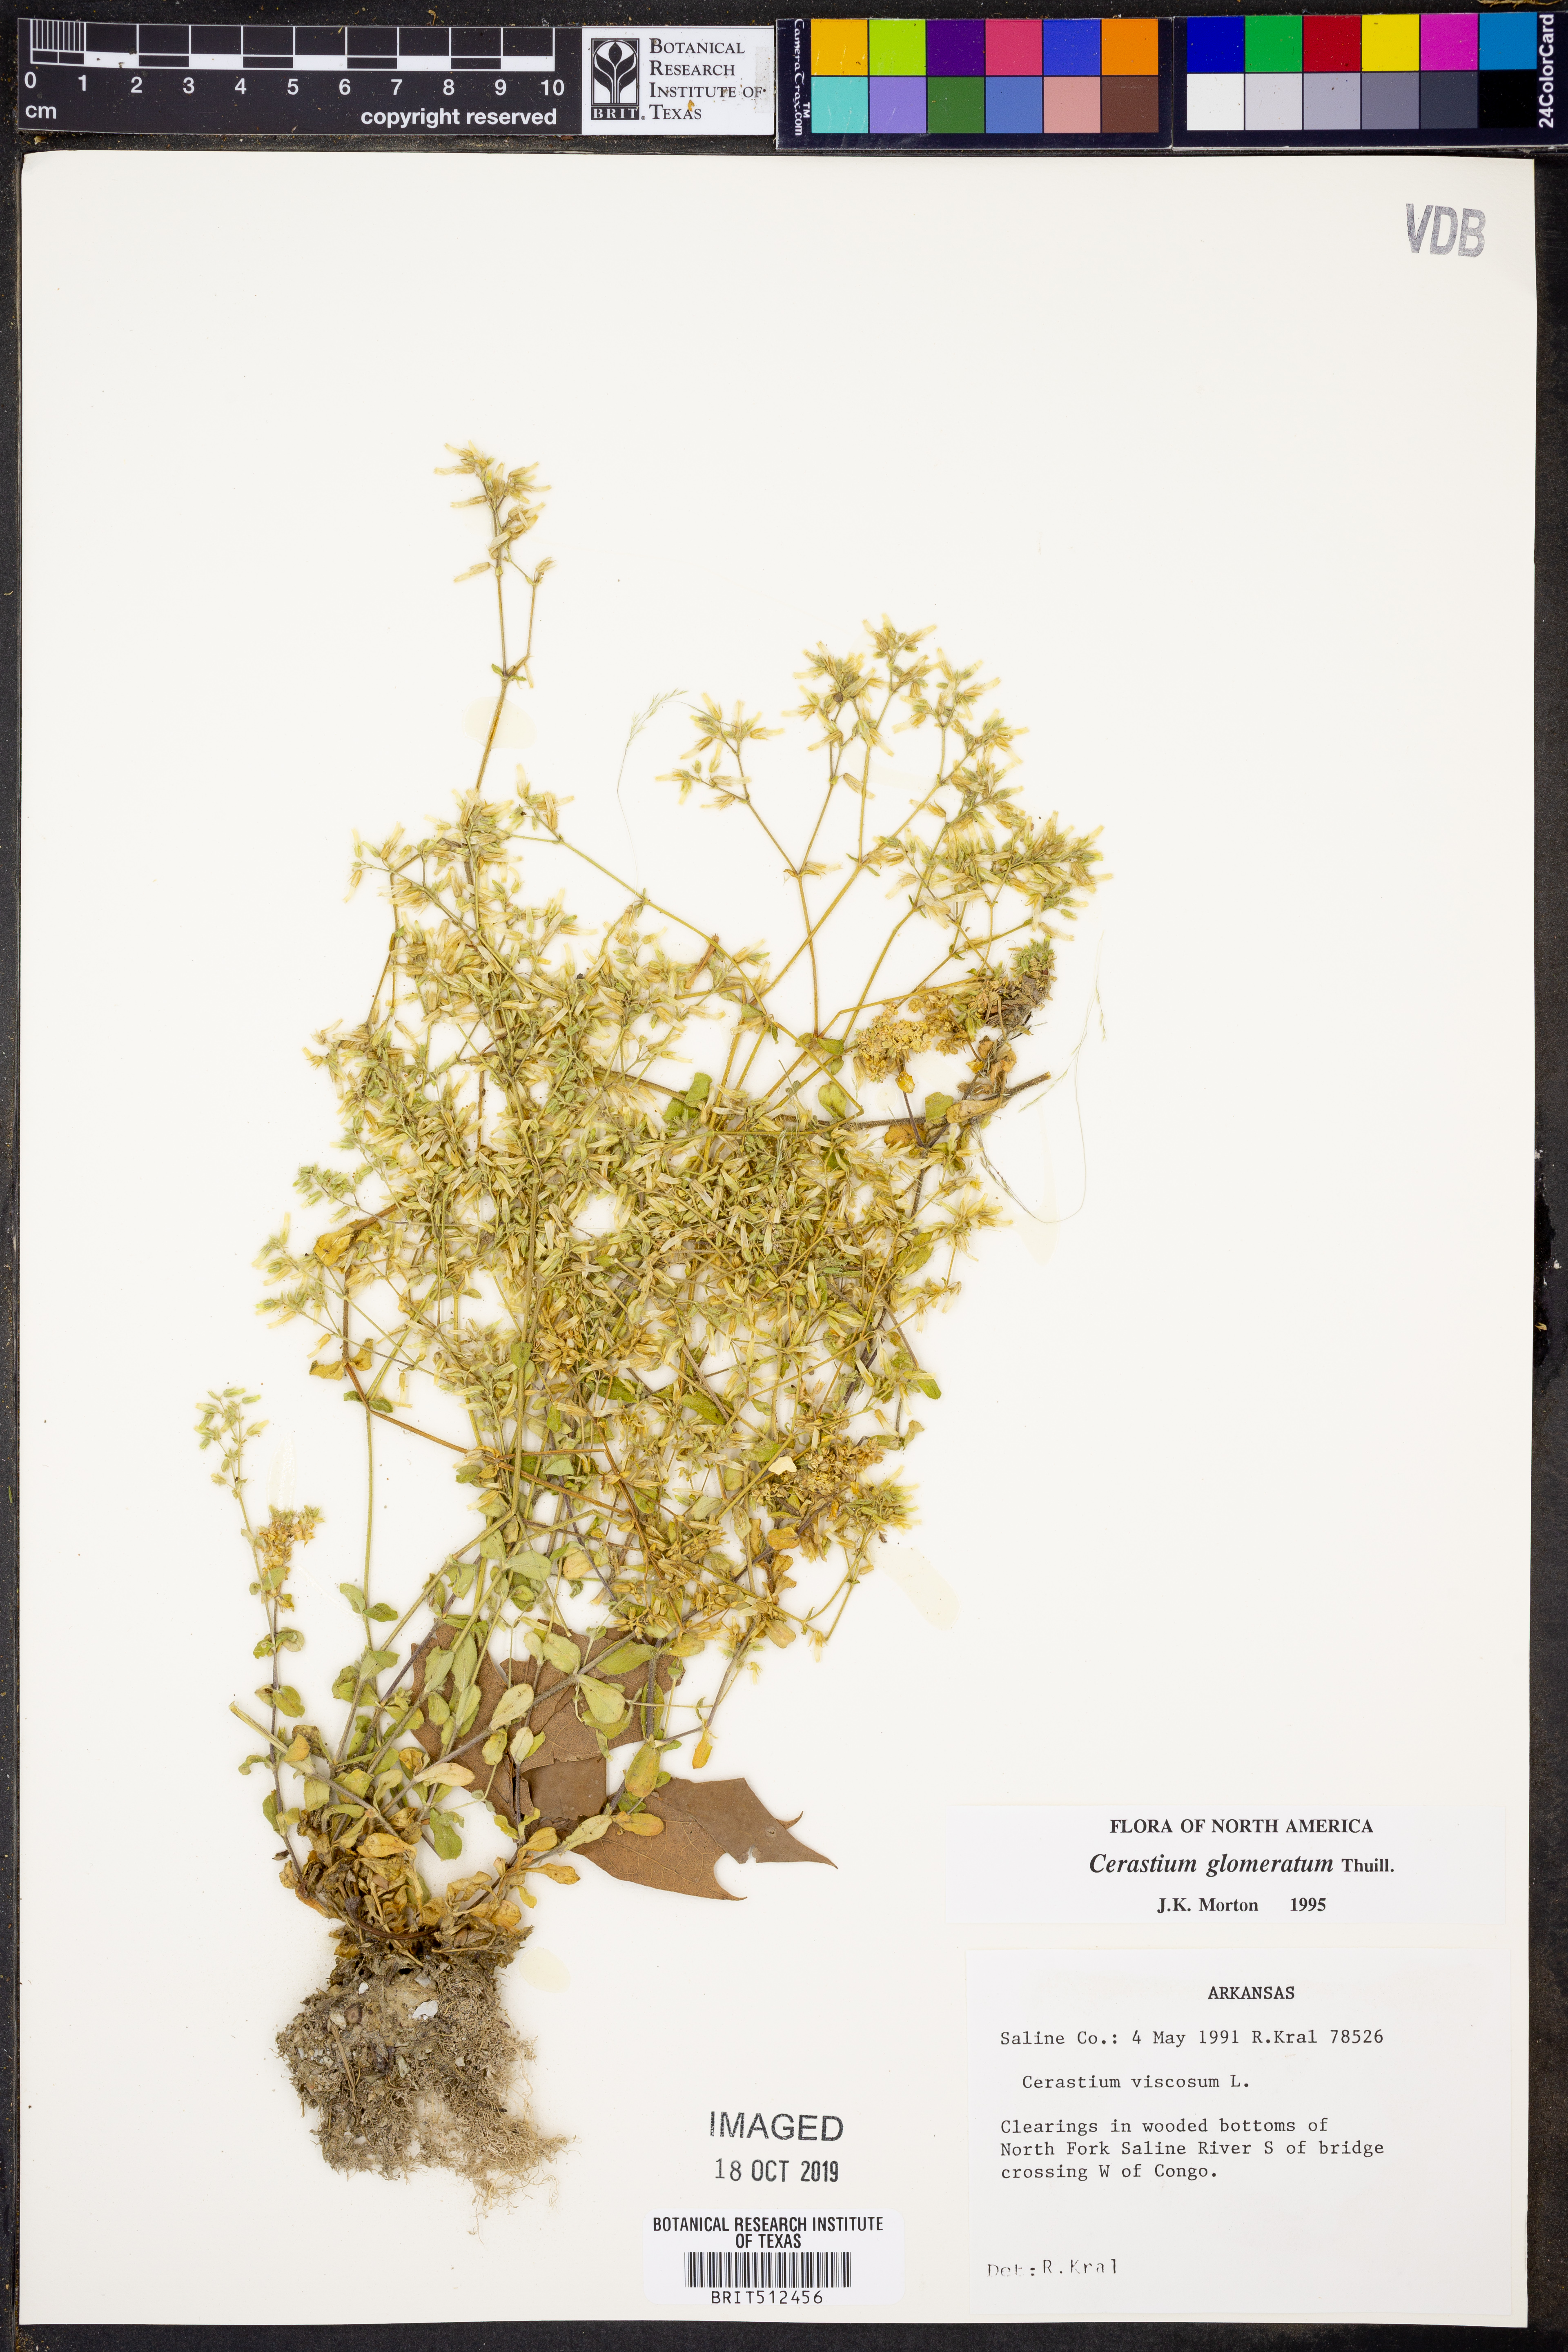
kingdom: Plantae
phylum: Tracheophyta
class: Magnoliopsida
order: Caryophyllales
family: Caryophyllaceae
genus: Cerastium
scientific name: Cerastium glomeratum
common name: Sticky chickweed
